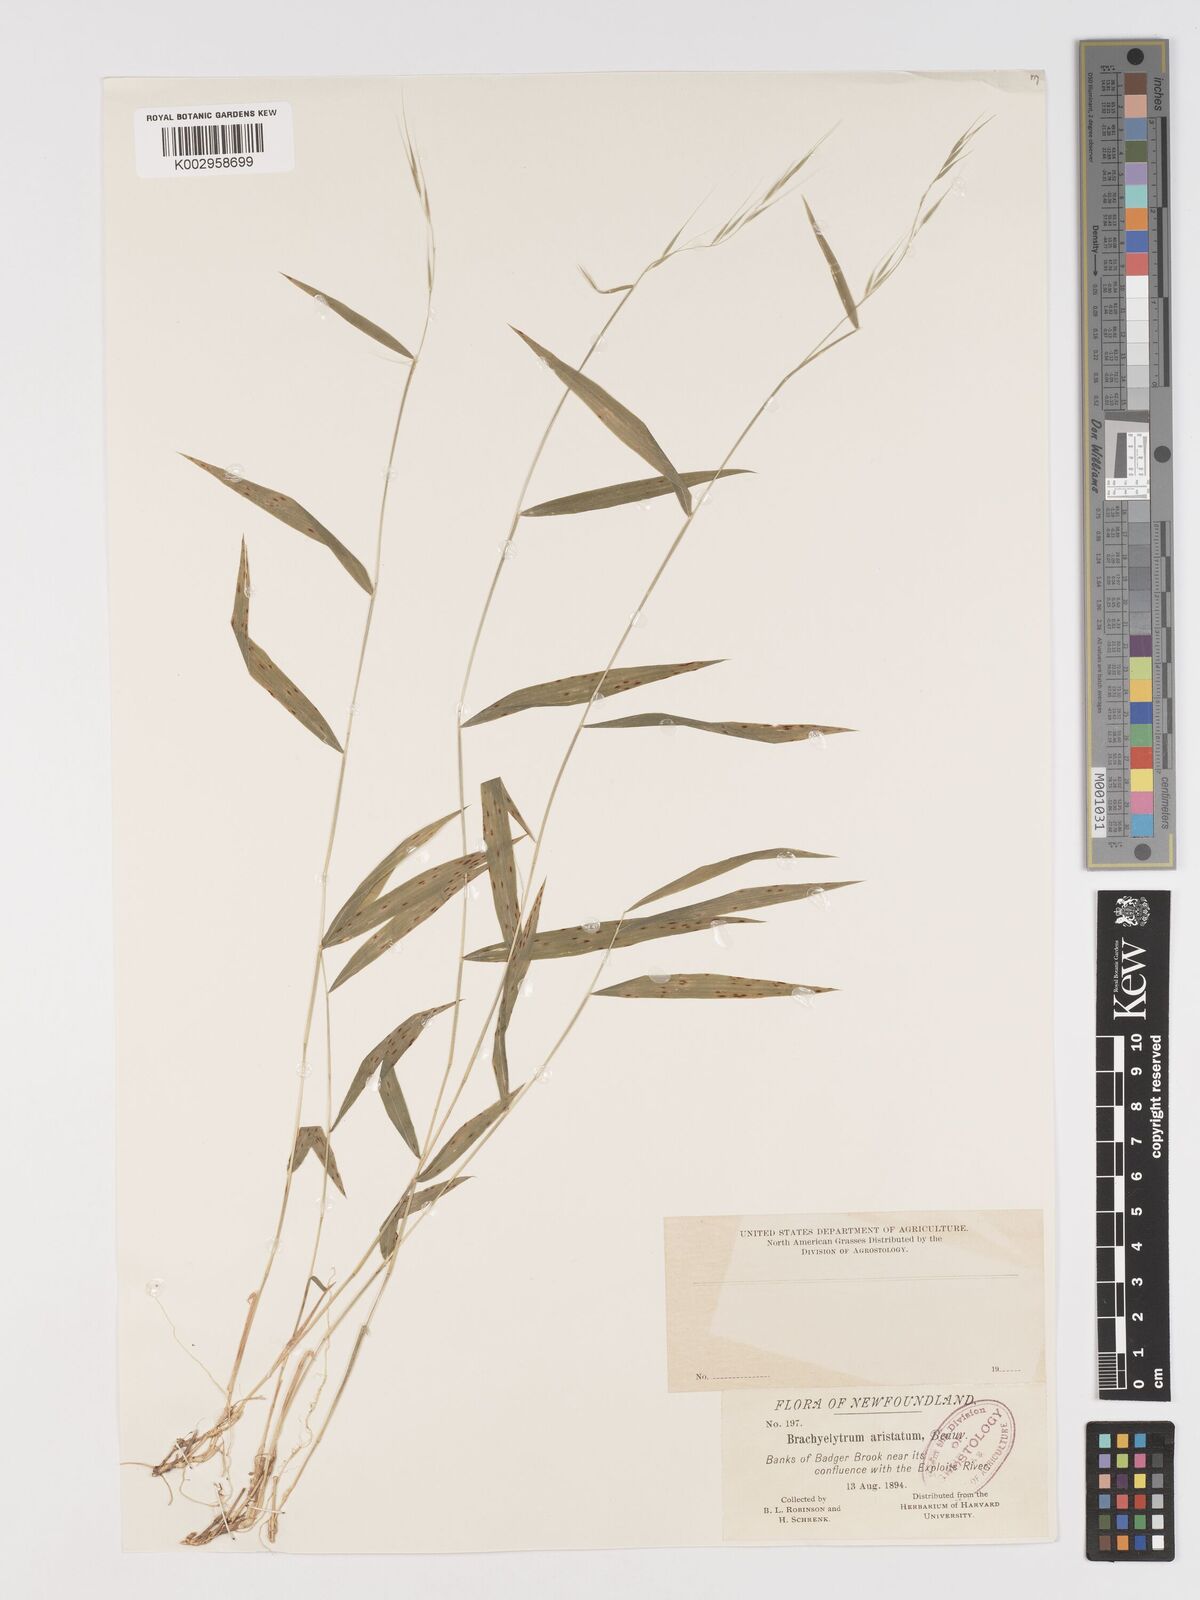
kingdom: Plantae
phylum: Tracheophyta
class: Liliopsida
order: Poales
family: Poaceae
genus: Brachyelytrum
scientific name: Brachyelytrum aristosum
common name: Northern shorthusk
